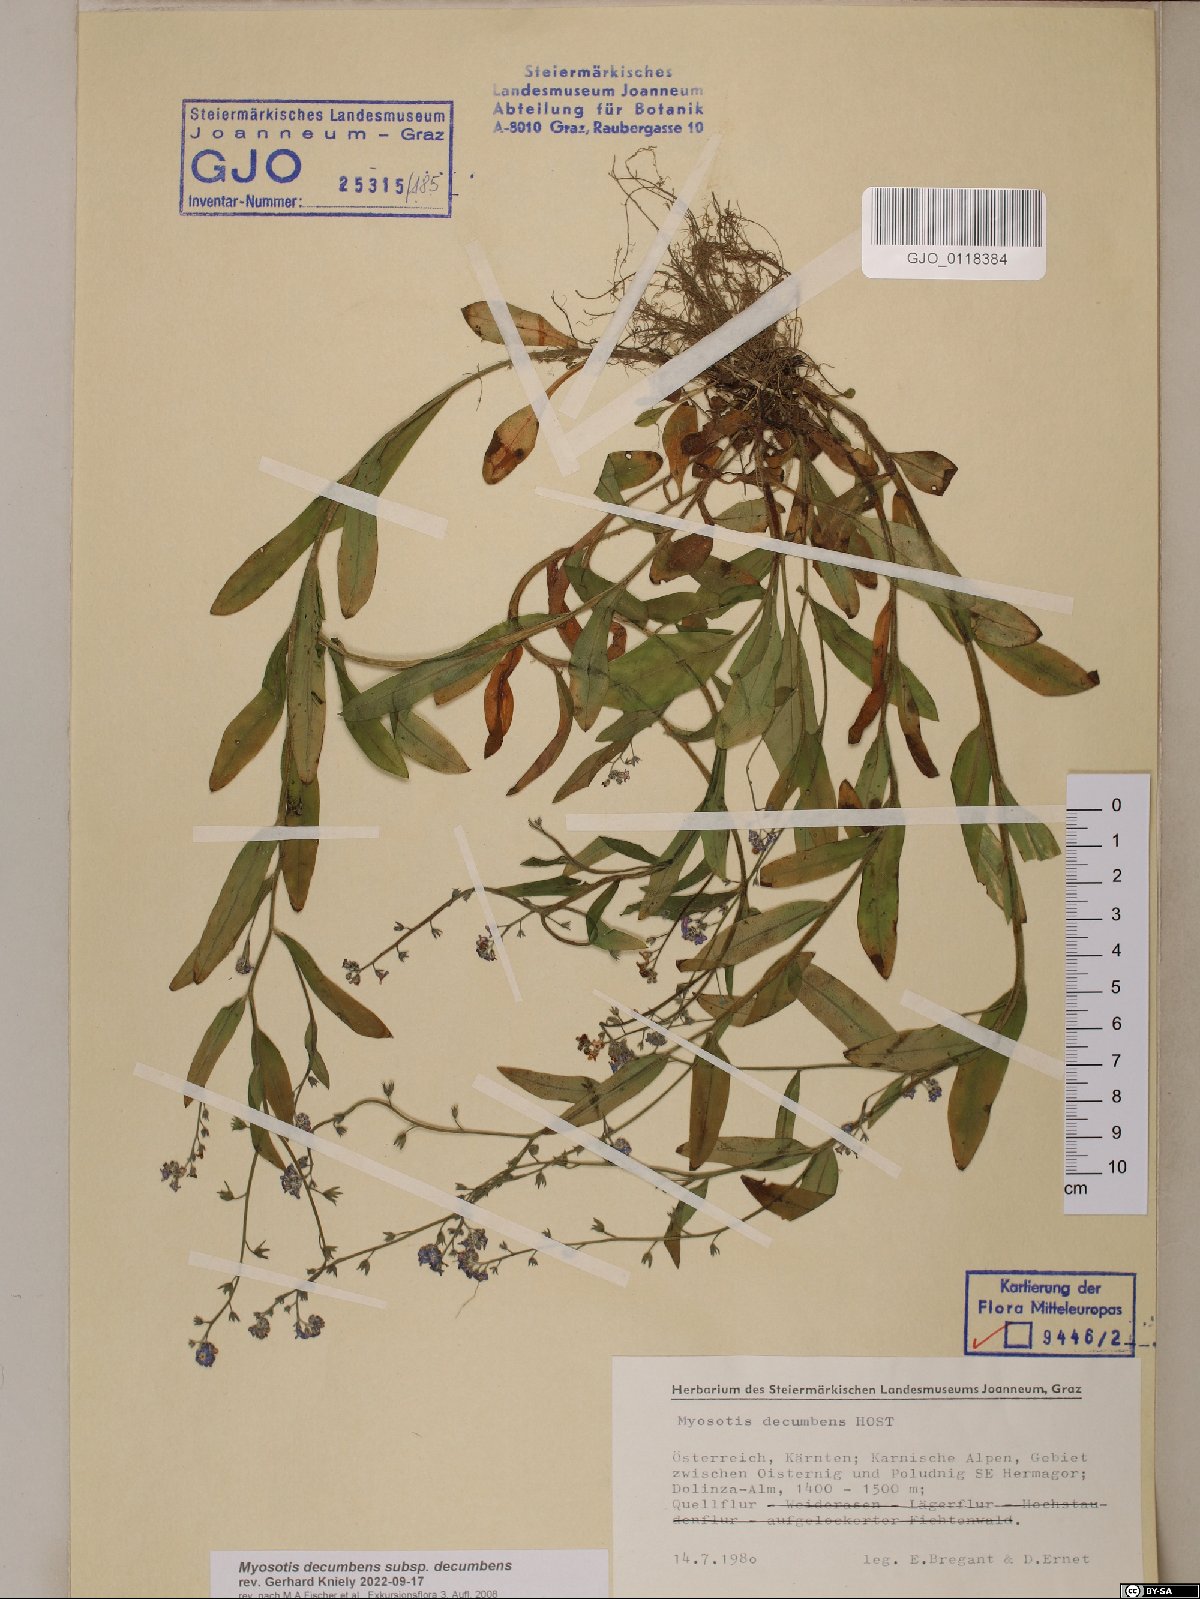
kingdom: Plantae
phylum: Tracheophyta
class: Magnoliopsida
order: Boraginales
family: Boraginaceae
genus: Myosotis
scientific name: Myosotis decumbens
